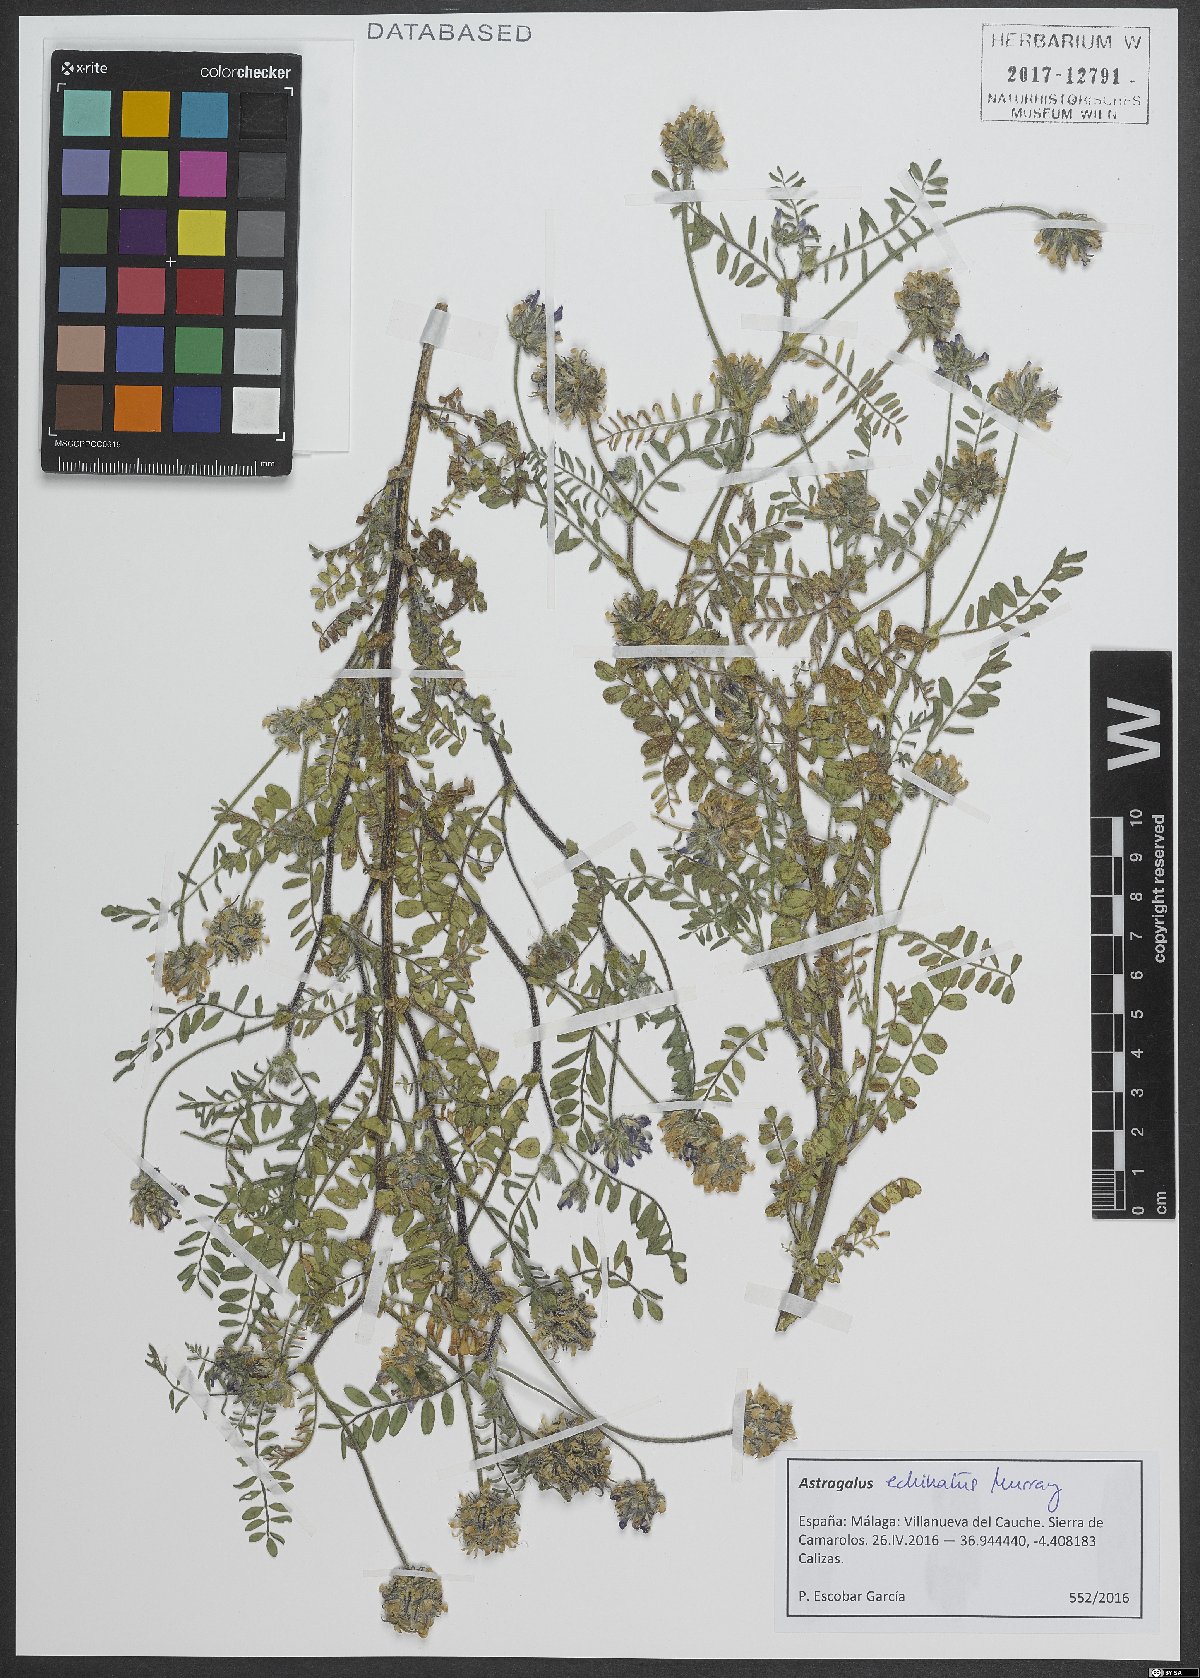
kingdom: Plantae
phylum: Tracheophyta
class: Magnoliopsida
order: Fabales
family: Fabaceae
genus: Astragalus
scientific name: Astragalus echinatus
